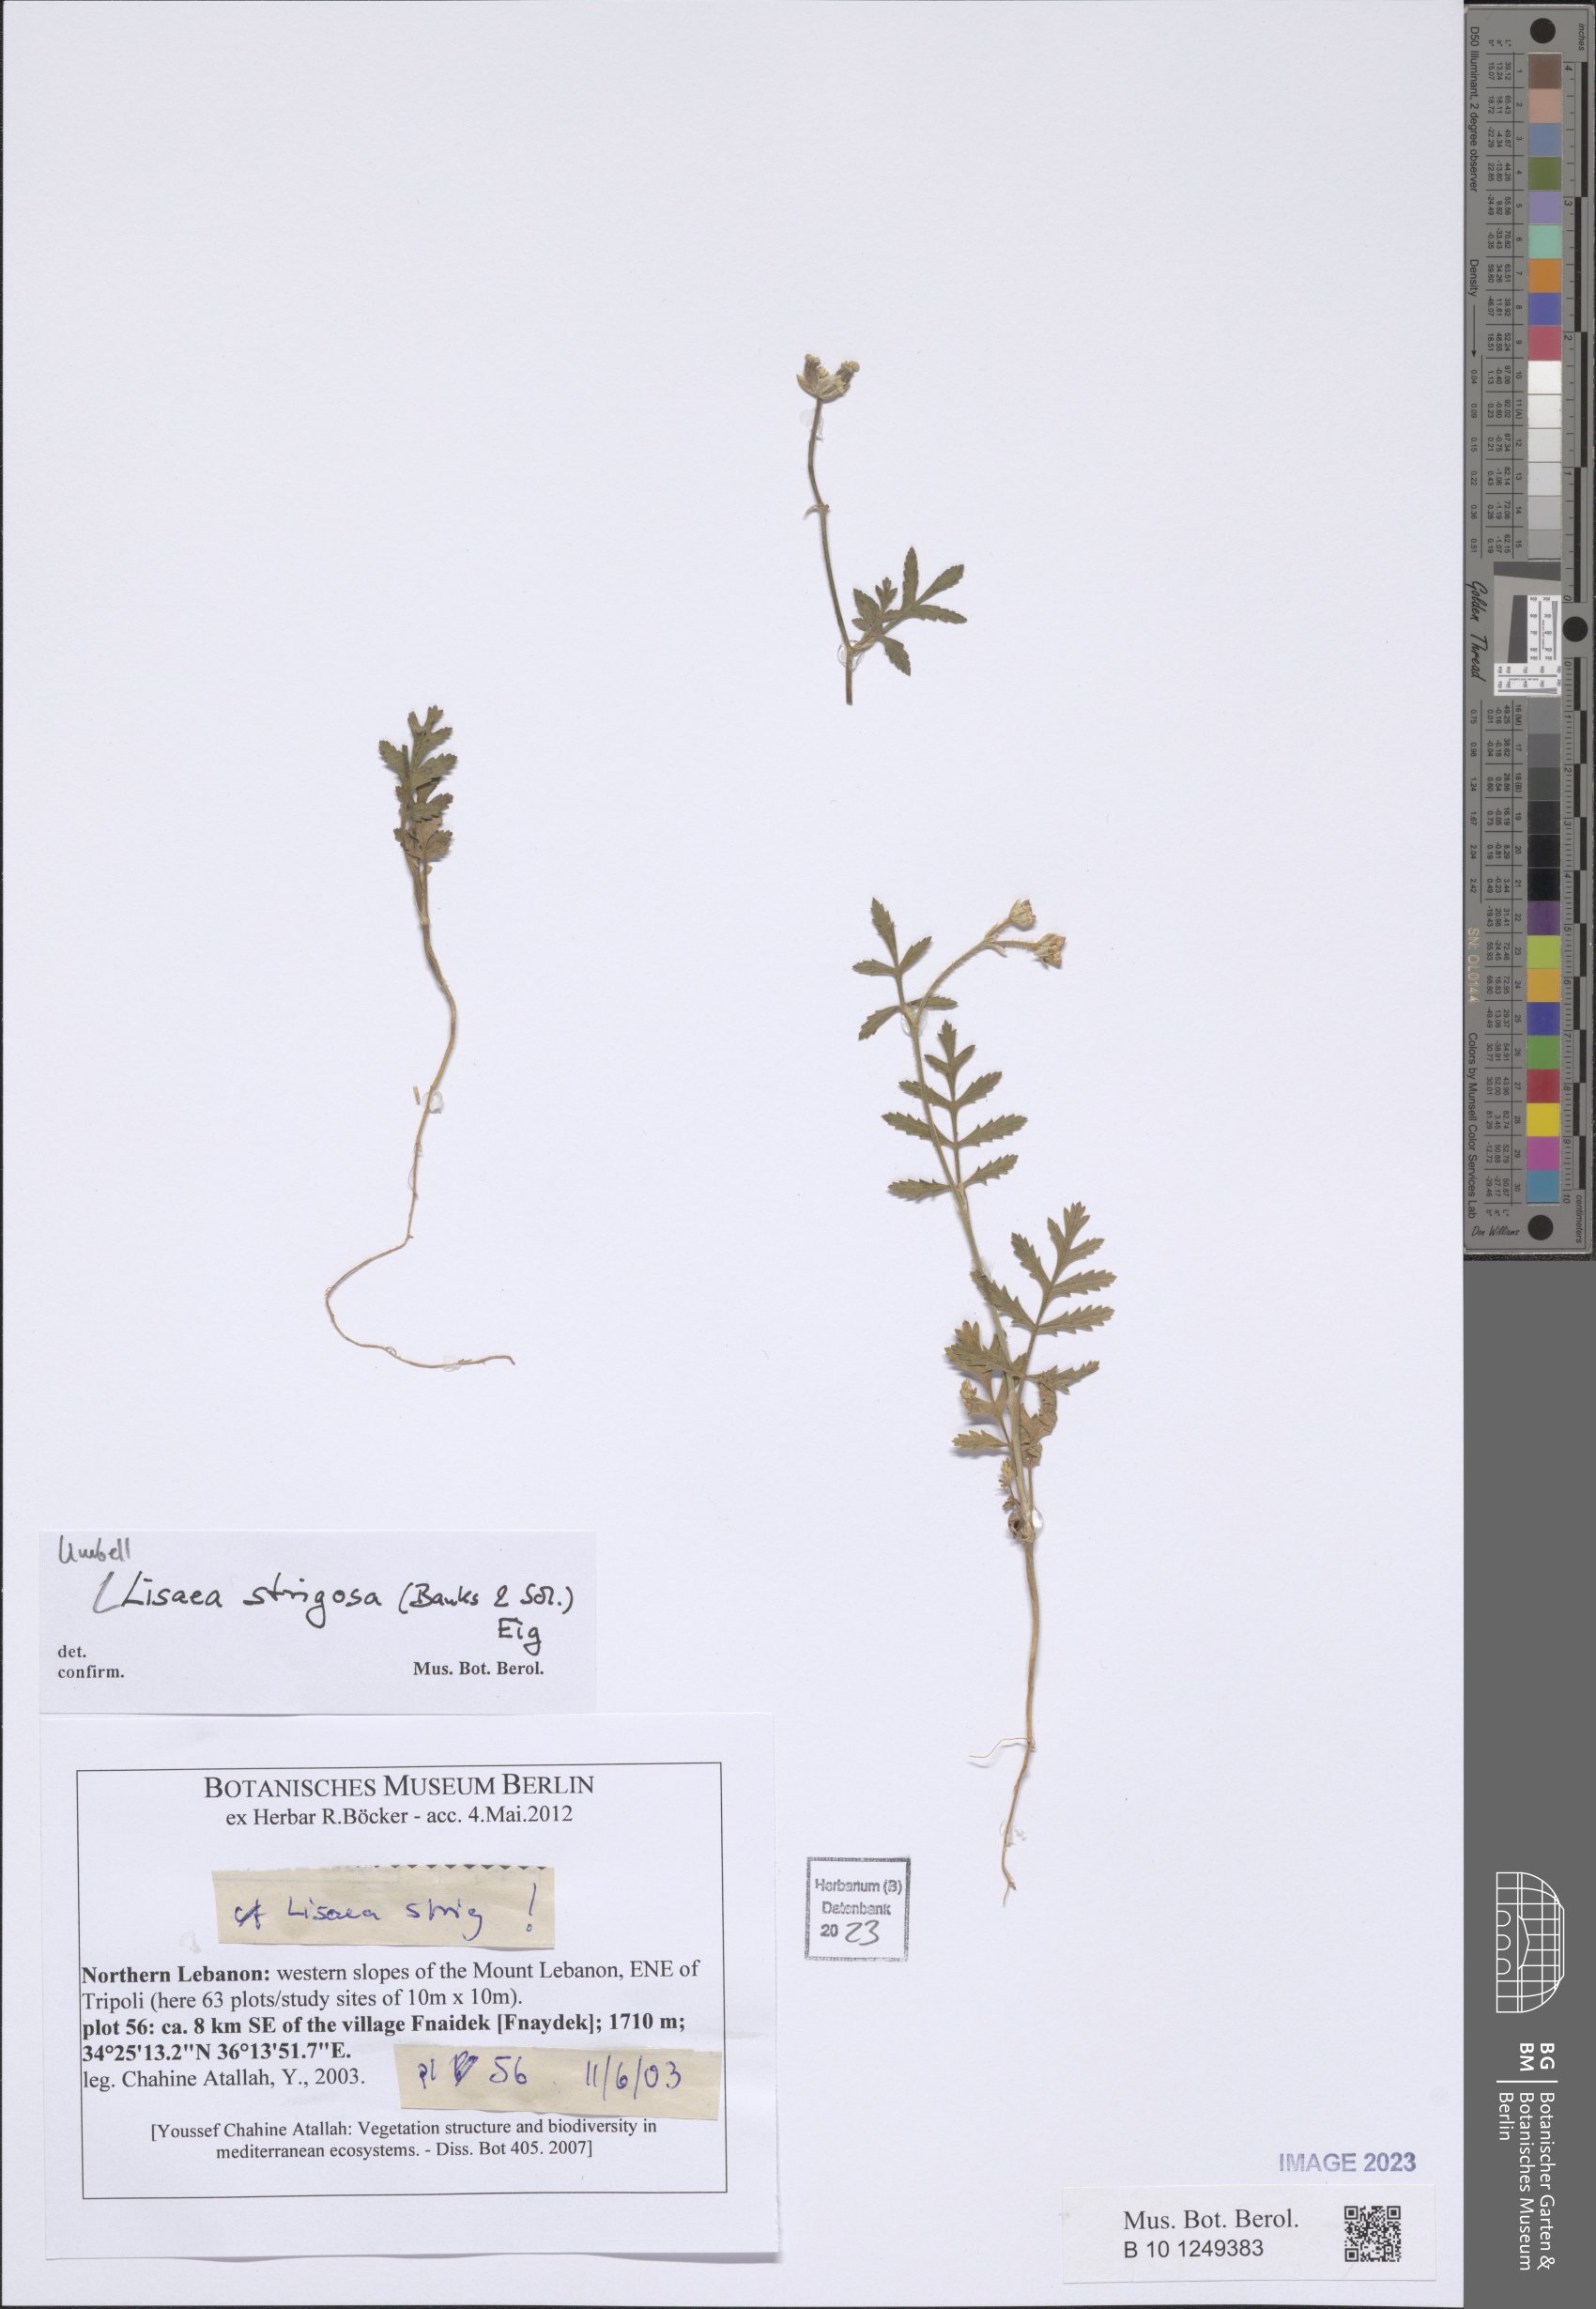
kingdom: Plantae
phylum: Tracheophyta
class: Magnoliopsida
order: Apiales
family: Apiaceae
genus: Lisaea
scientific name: Lisaea strigosa
